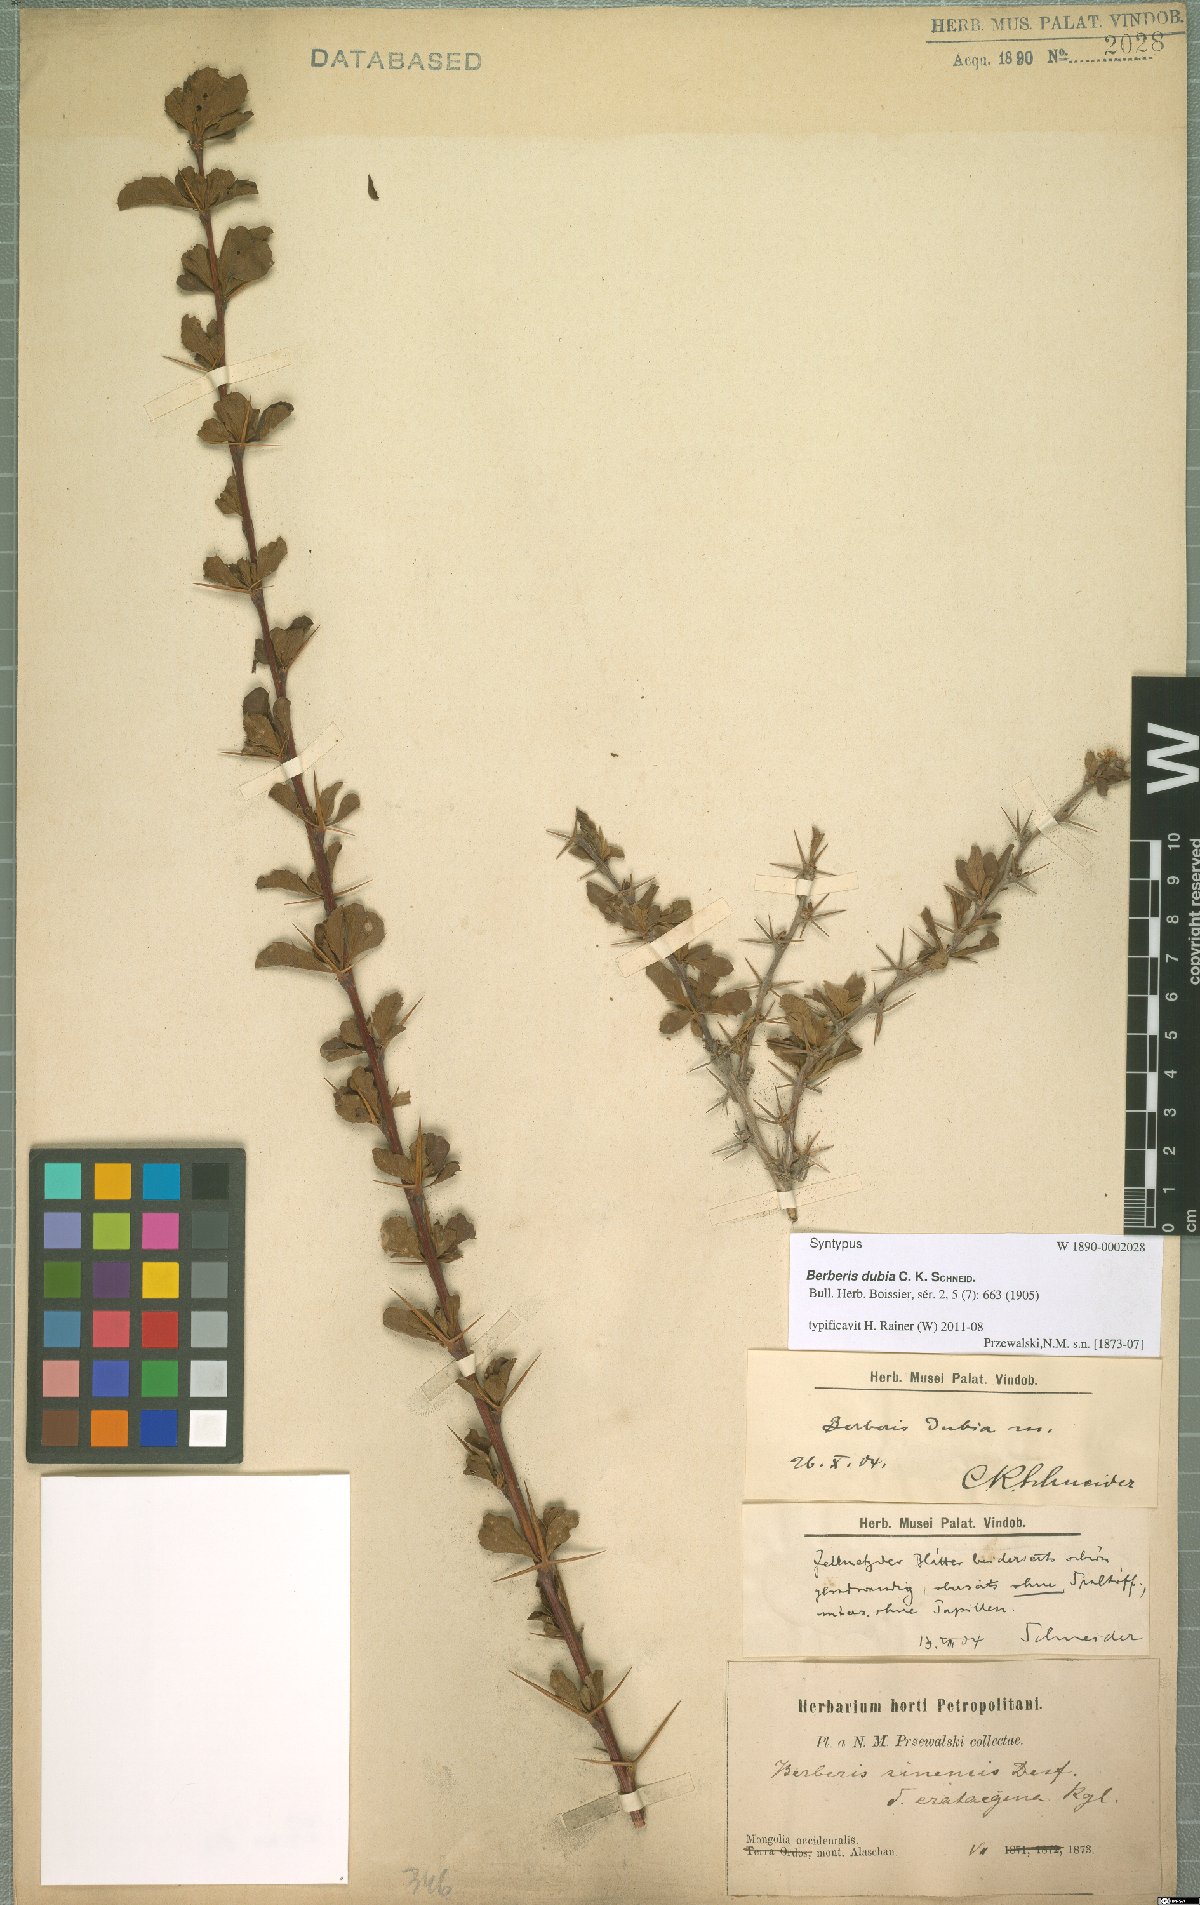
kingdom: Plantae
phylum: Tracheophyta
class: Magnoliopsida
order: Ranunculales
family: Berberidaceae
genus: Berberis
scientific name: Berberis dubia
